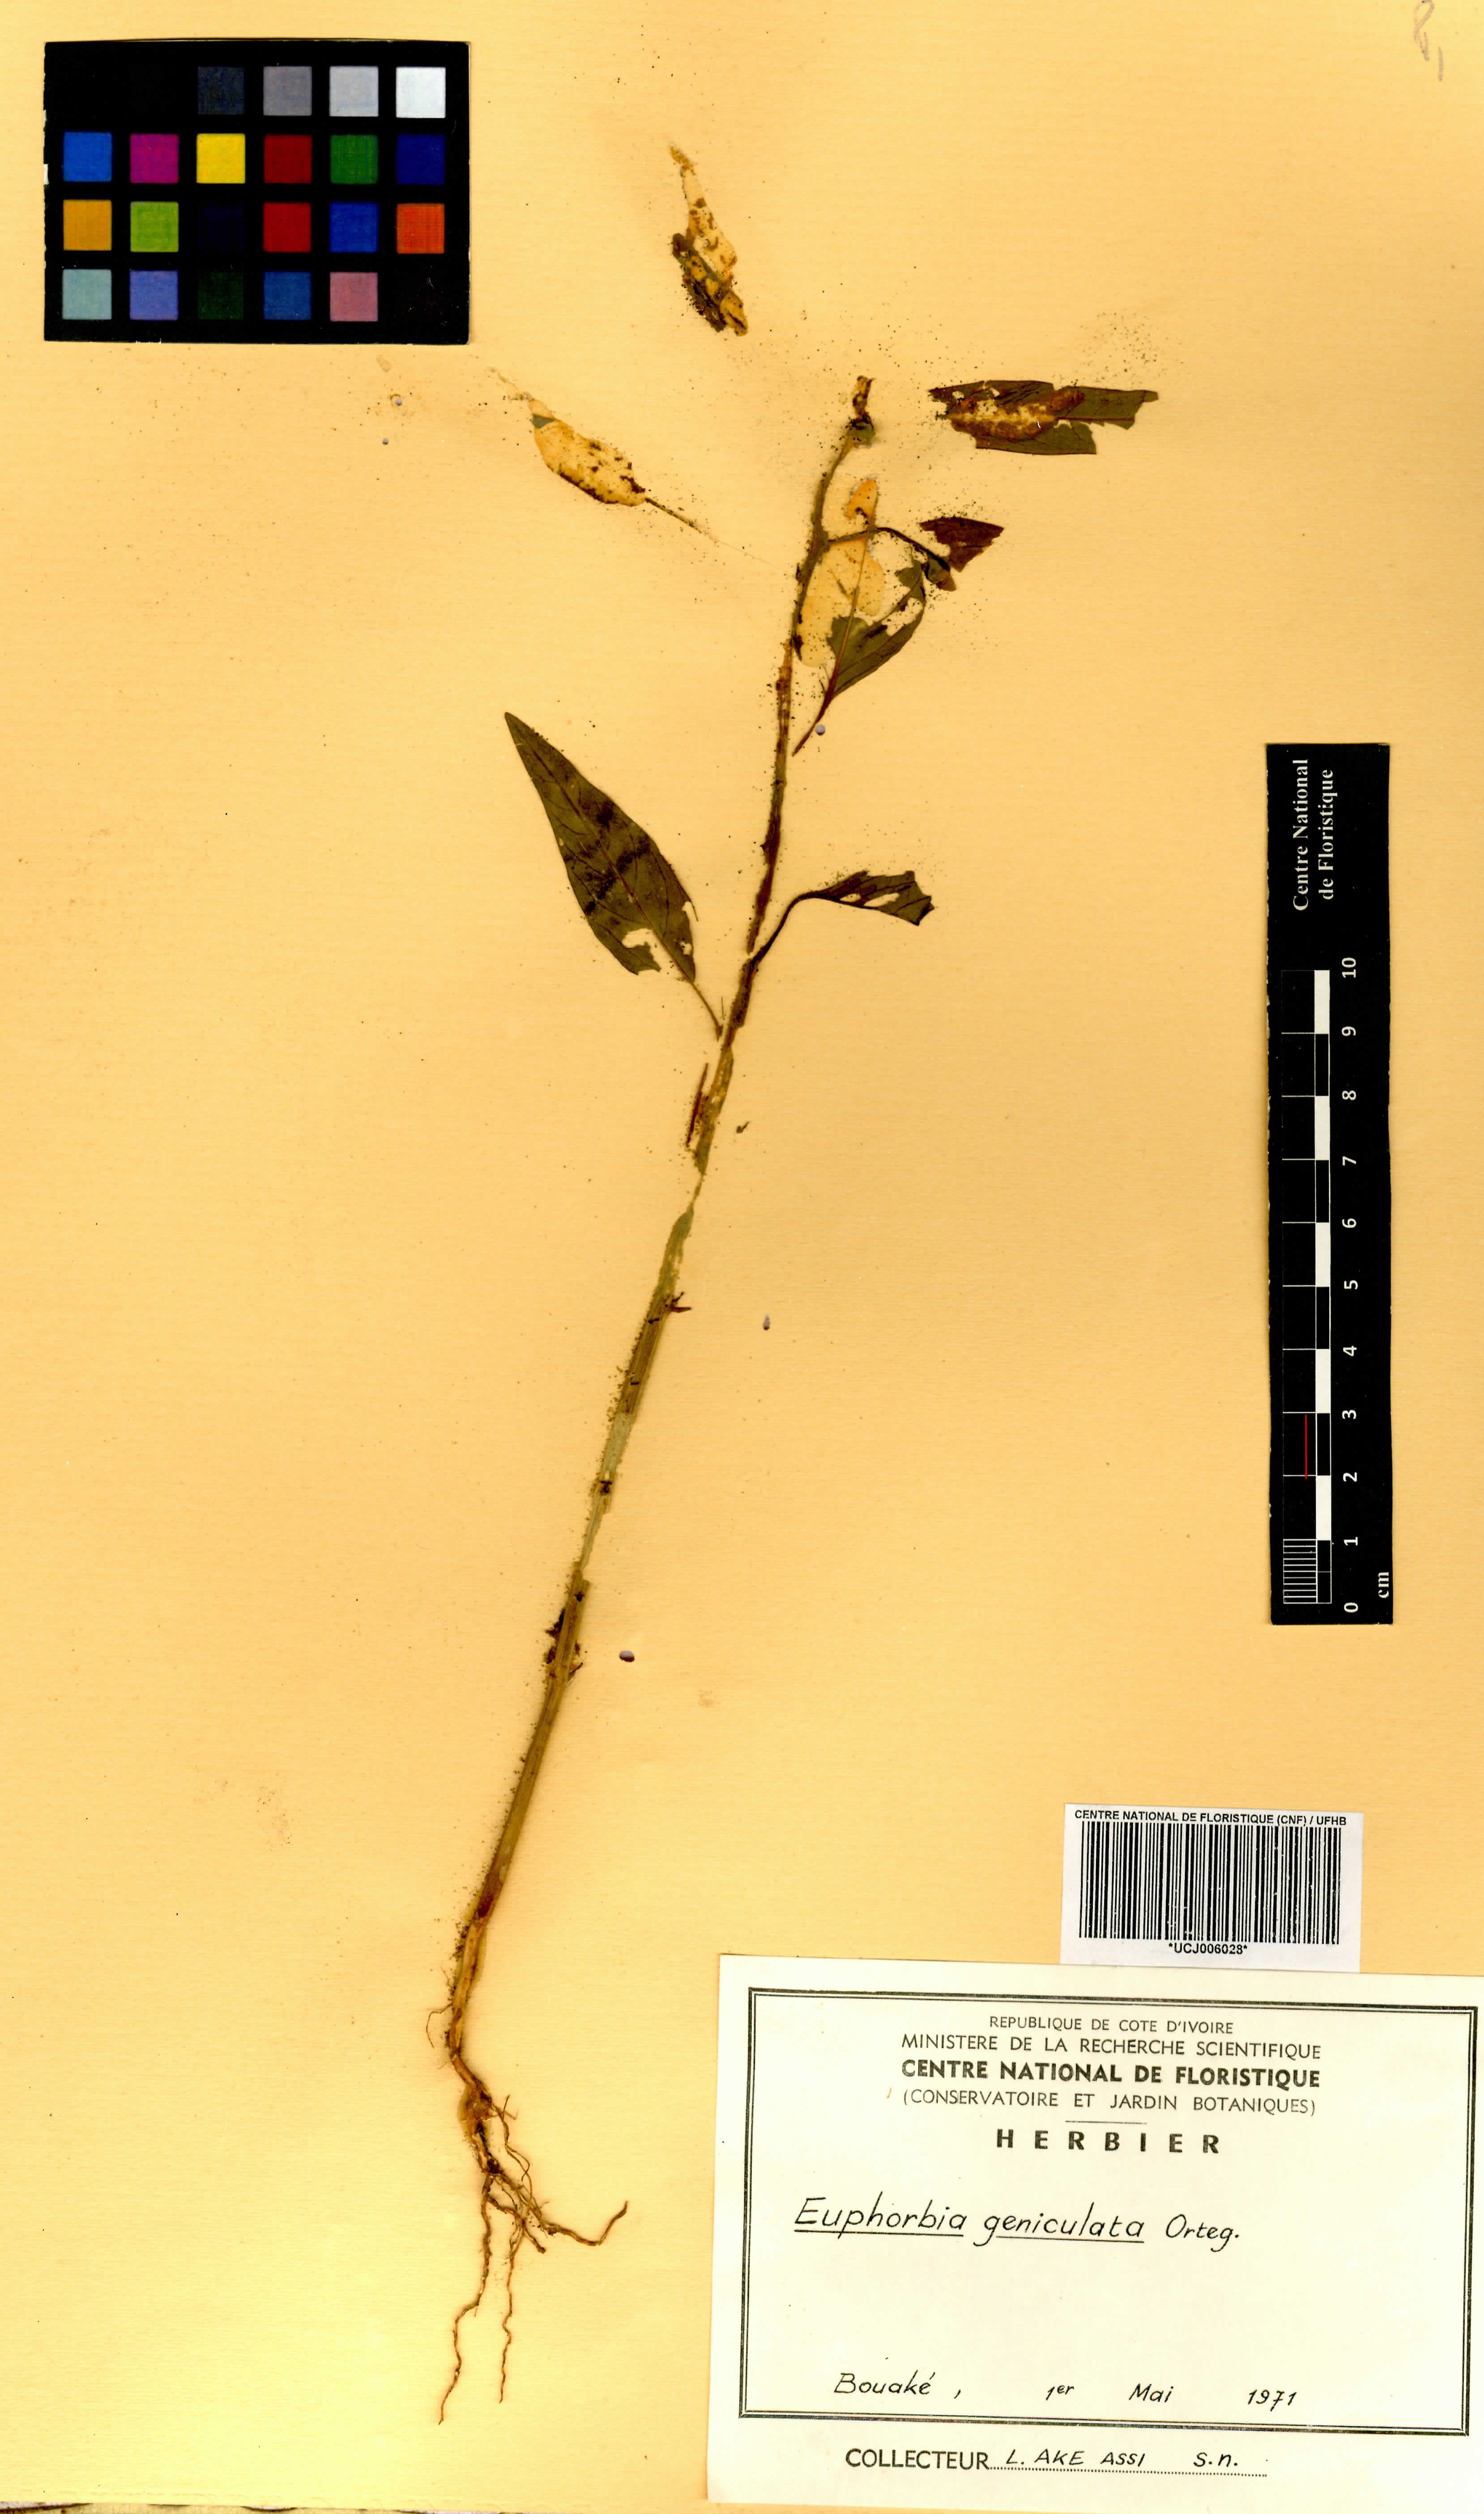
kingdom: Plantae
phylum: Tracheophyta
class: Magnoliopsida
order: Malpighiales
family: Euphorbiaceae
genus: Euphorbia
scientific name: Euphorbia heterophylla
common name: Mexican fireplant
